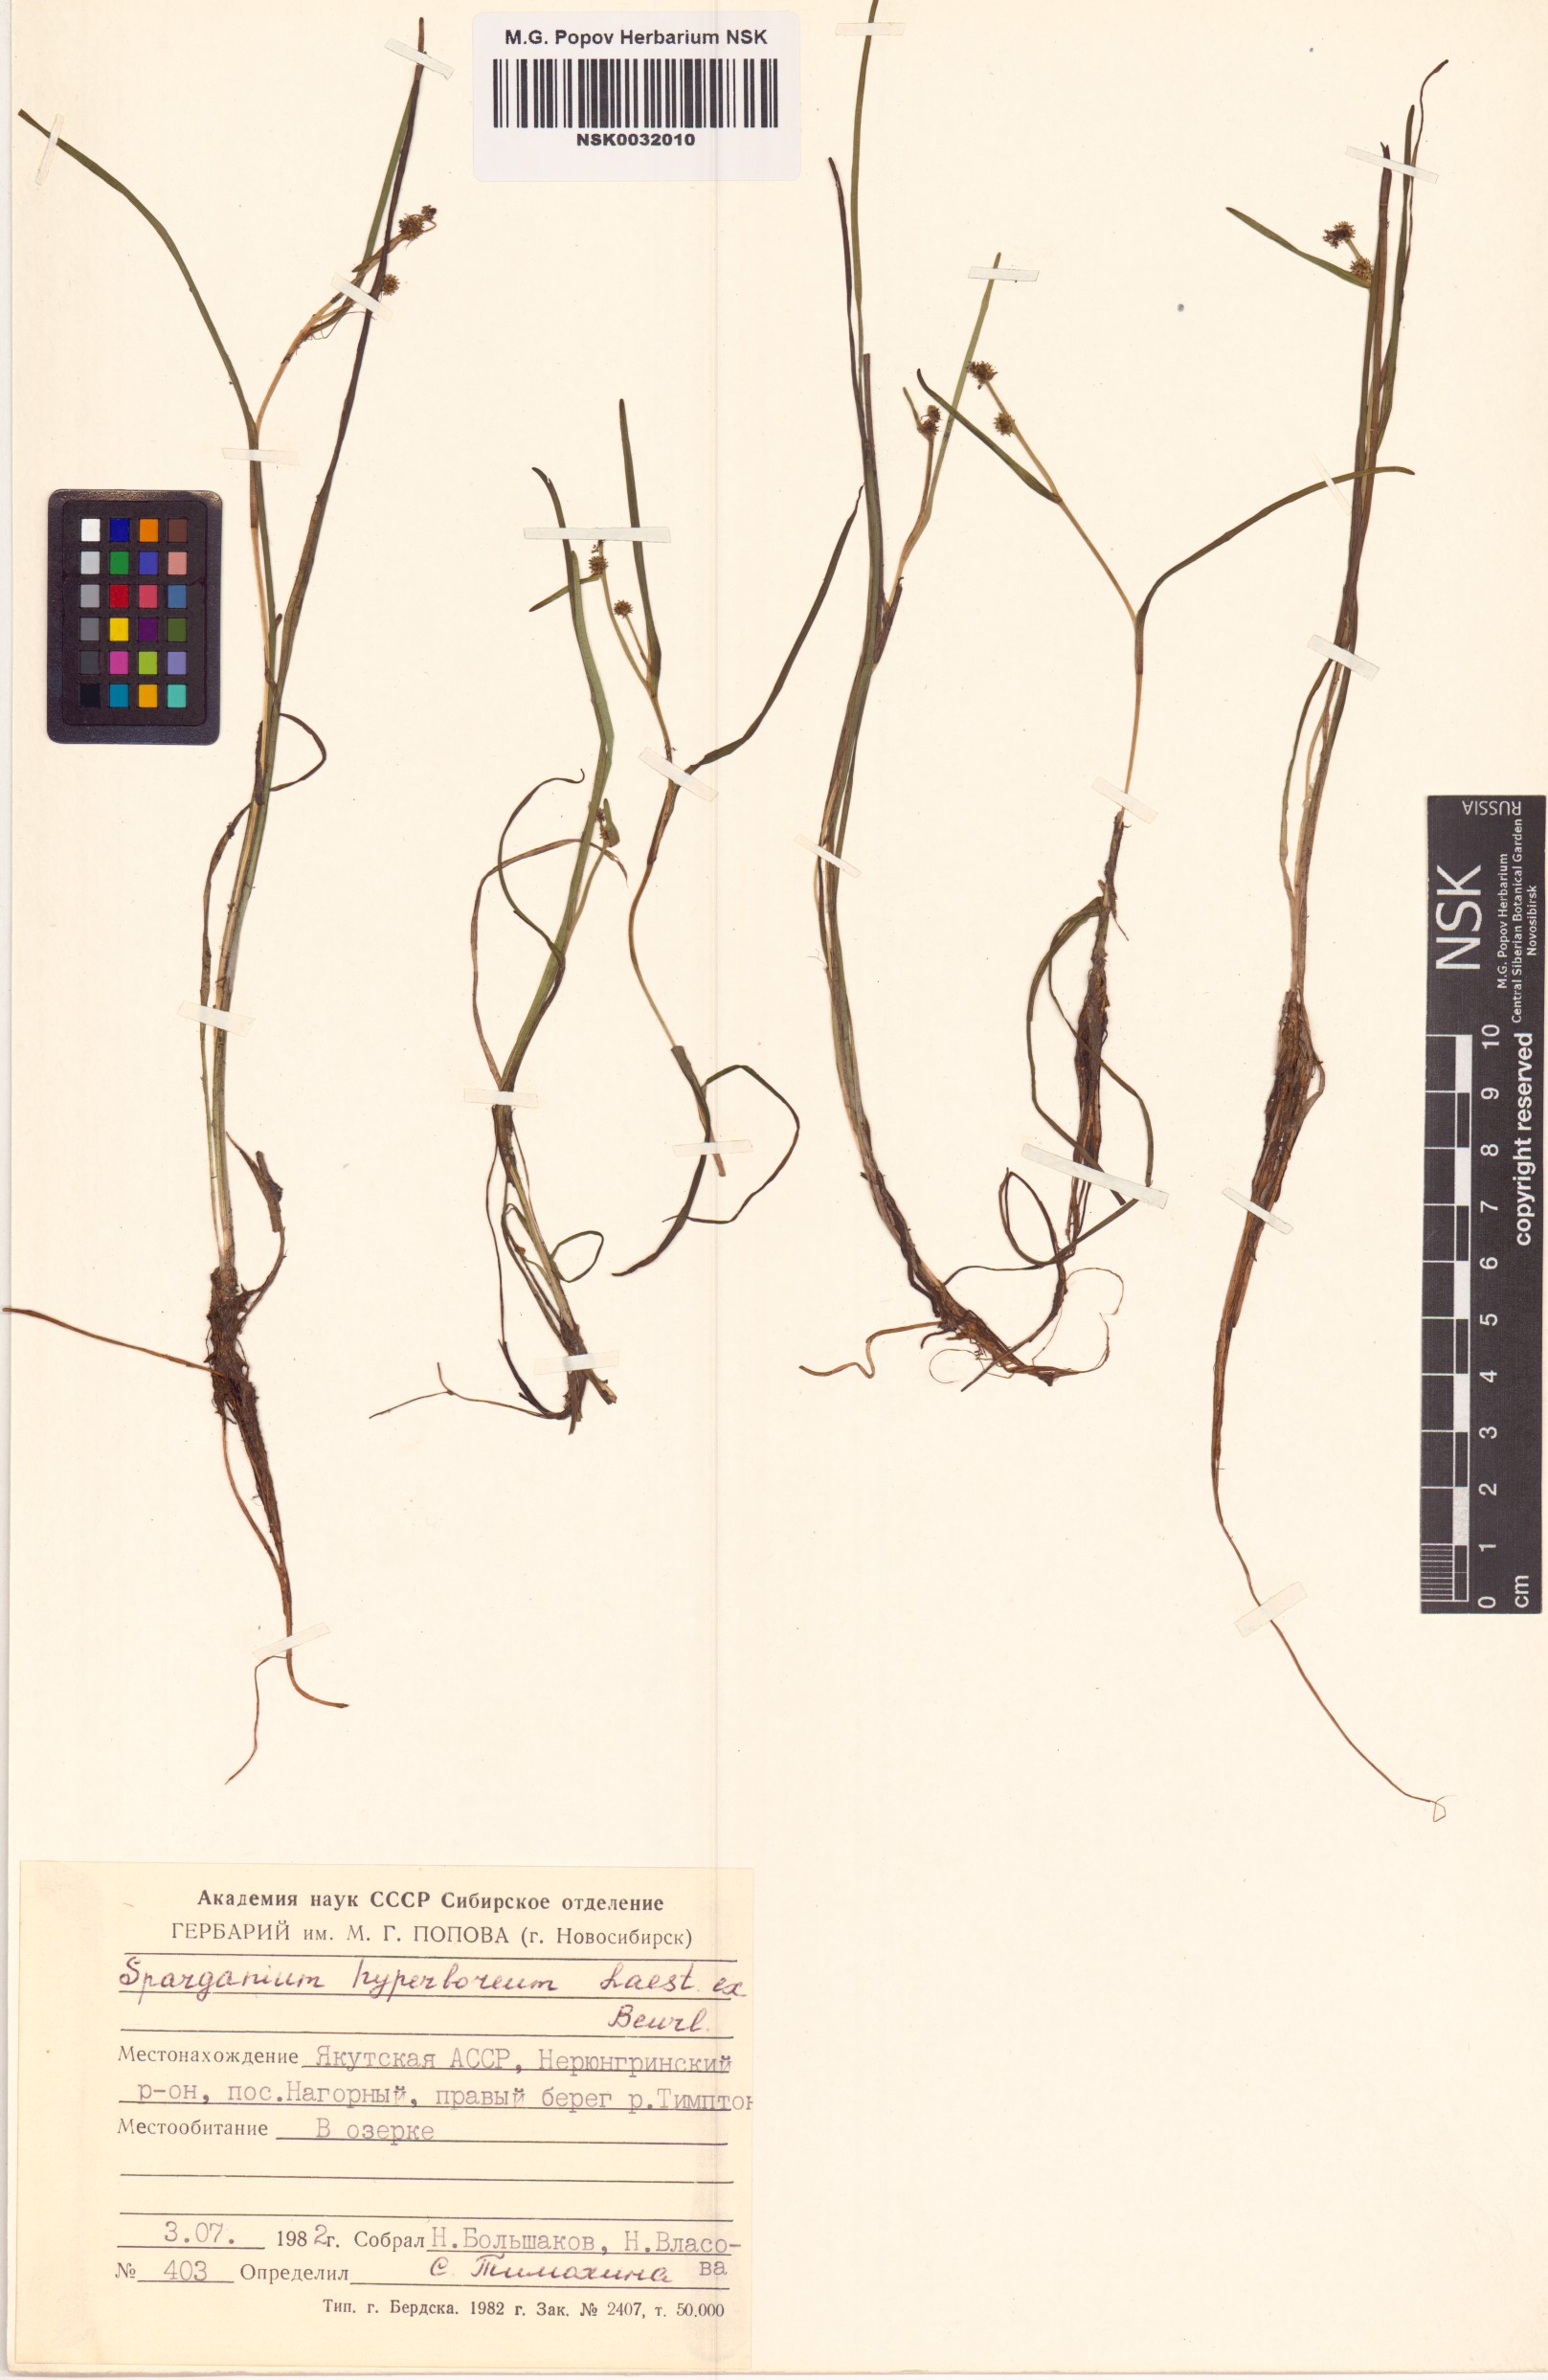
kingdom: Plantae
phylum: Tracheophyta
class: Liliopsida
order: Poales
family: Typhaceae
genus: Sparganium
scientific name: Sparganium hyperboreum
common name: Arctic burreed
